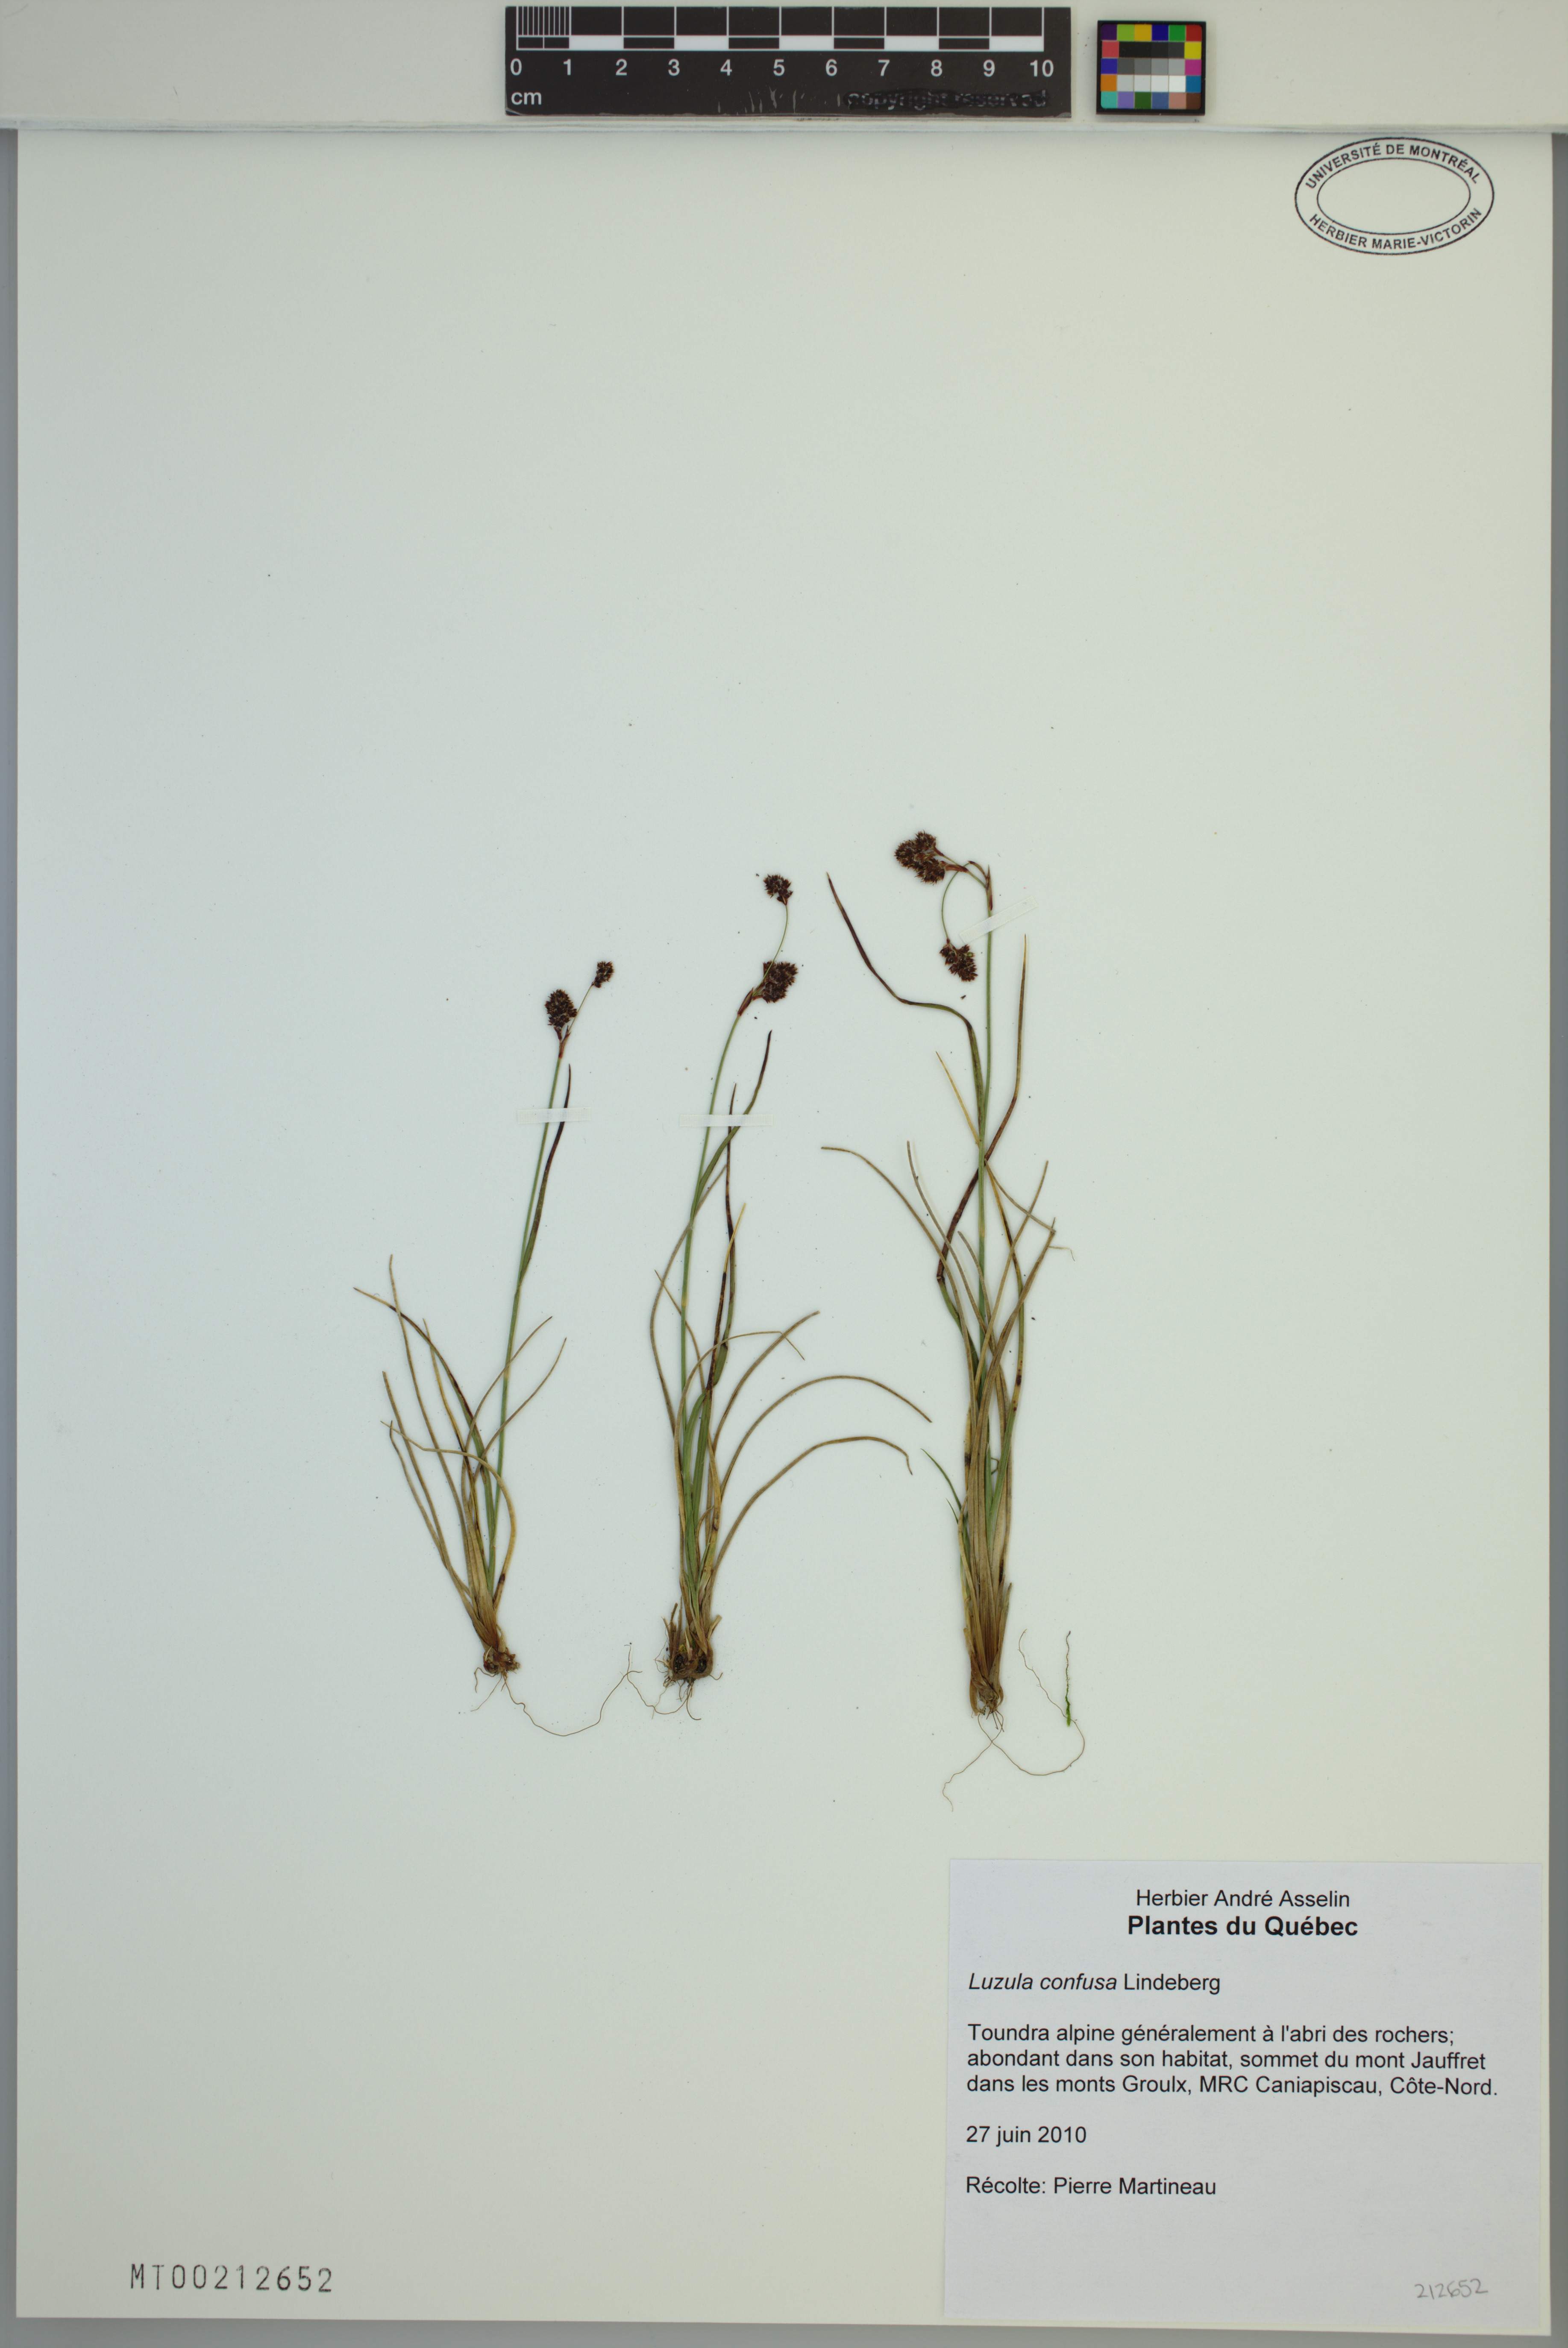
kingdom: Plantae
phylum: Tracheophyta
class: Liliopsida
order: Poales
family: Juncaceae
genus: Luzula
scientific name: Luzula confusa
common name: Northern wood rush
